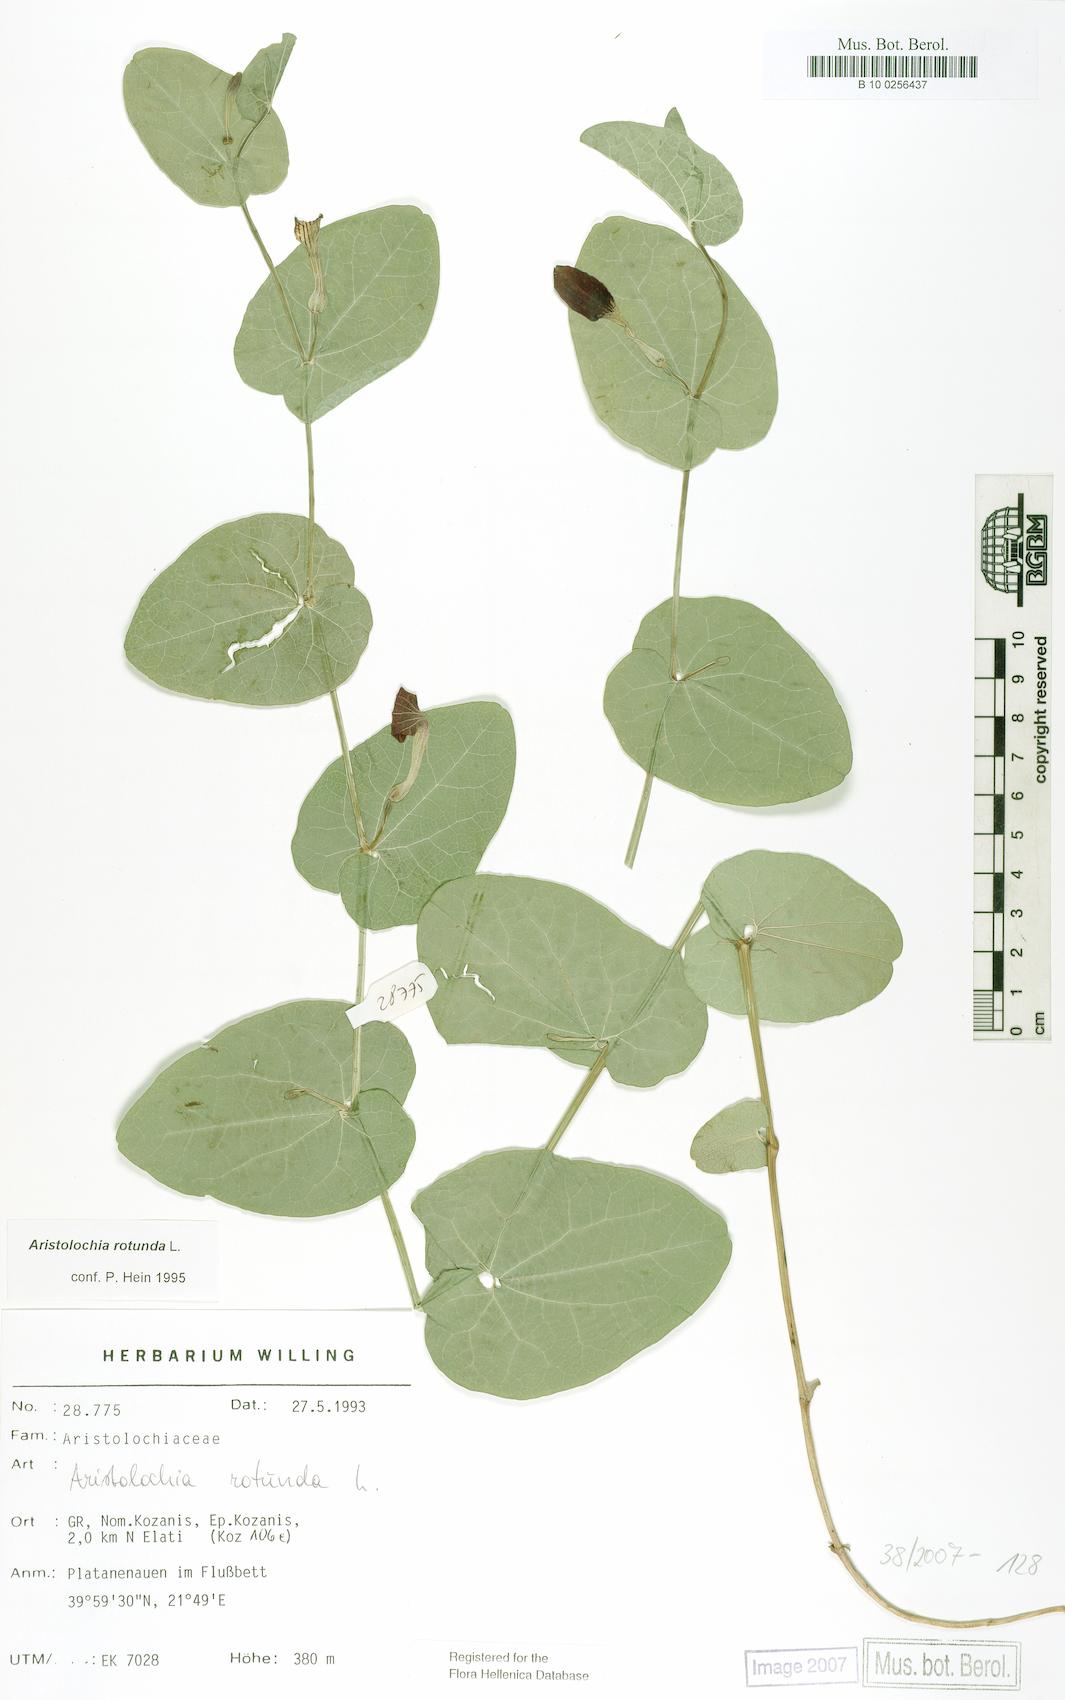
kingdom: Plantae
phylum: Tracheophyta
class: Magnoliopsida
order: Piperales
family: Aristolochiaceae
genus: Aristolochia
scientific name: Aristolochia rotunda
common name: Smearwort
